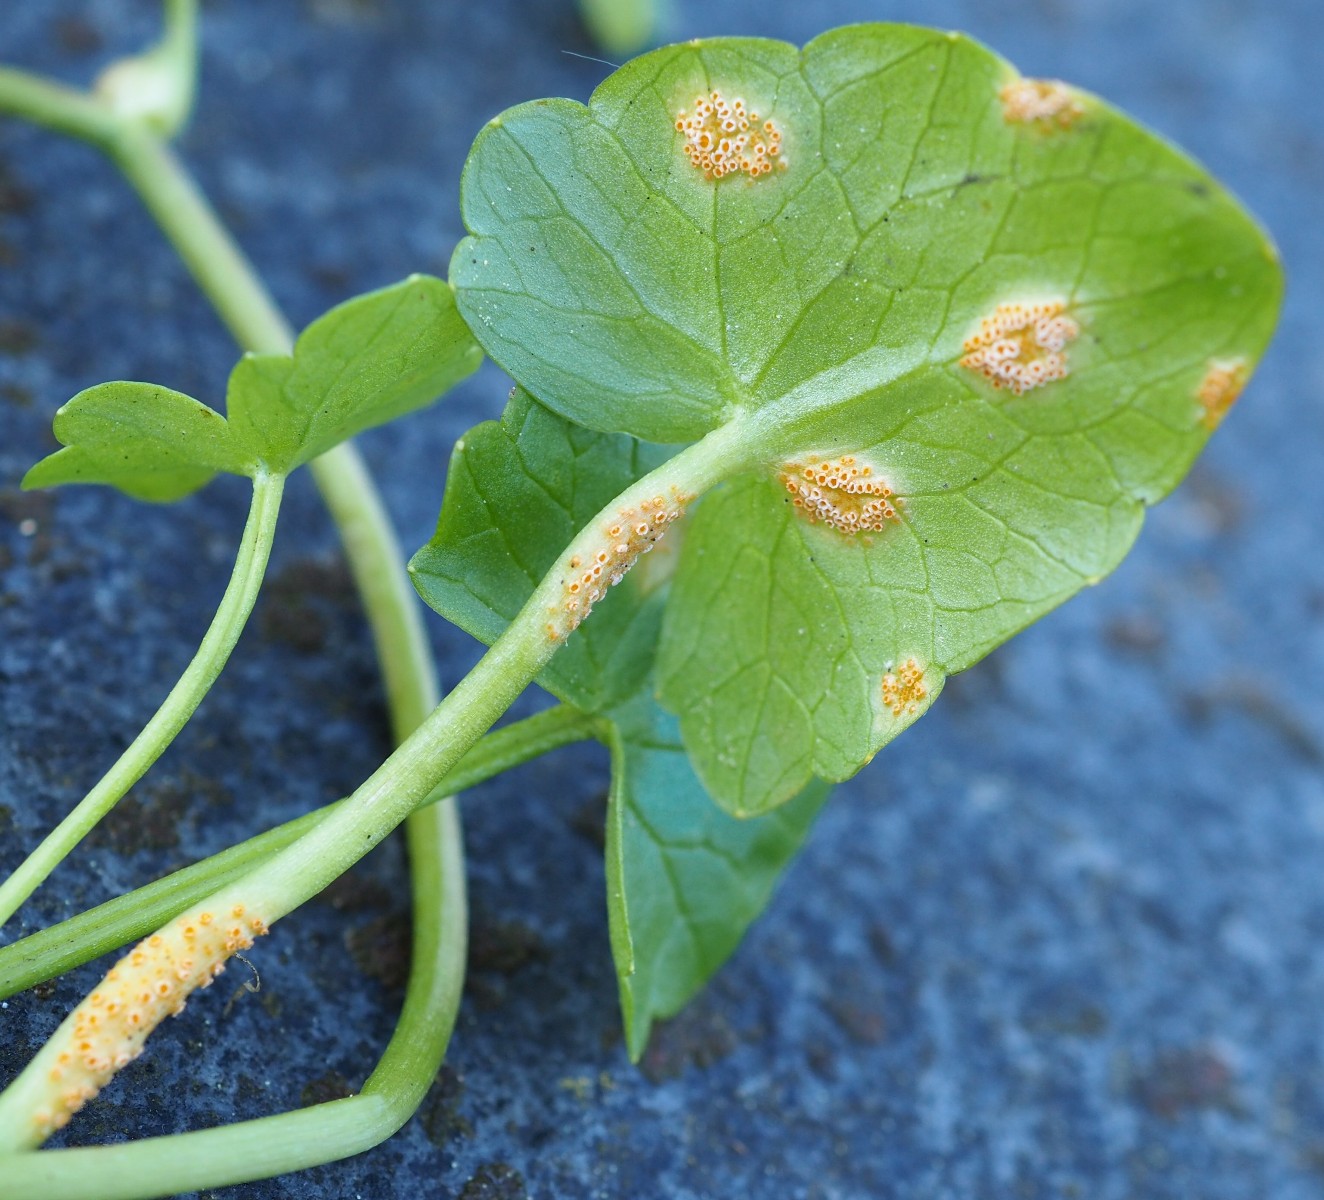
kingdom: Fungi
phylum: Basidiomycota
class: Pucciniomycetes
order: Pucciniales
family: Pucciniaceae
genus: Uromyces
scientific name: Uromyces dactylidis
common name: ranunkel-encellerust
